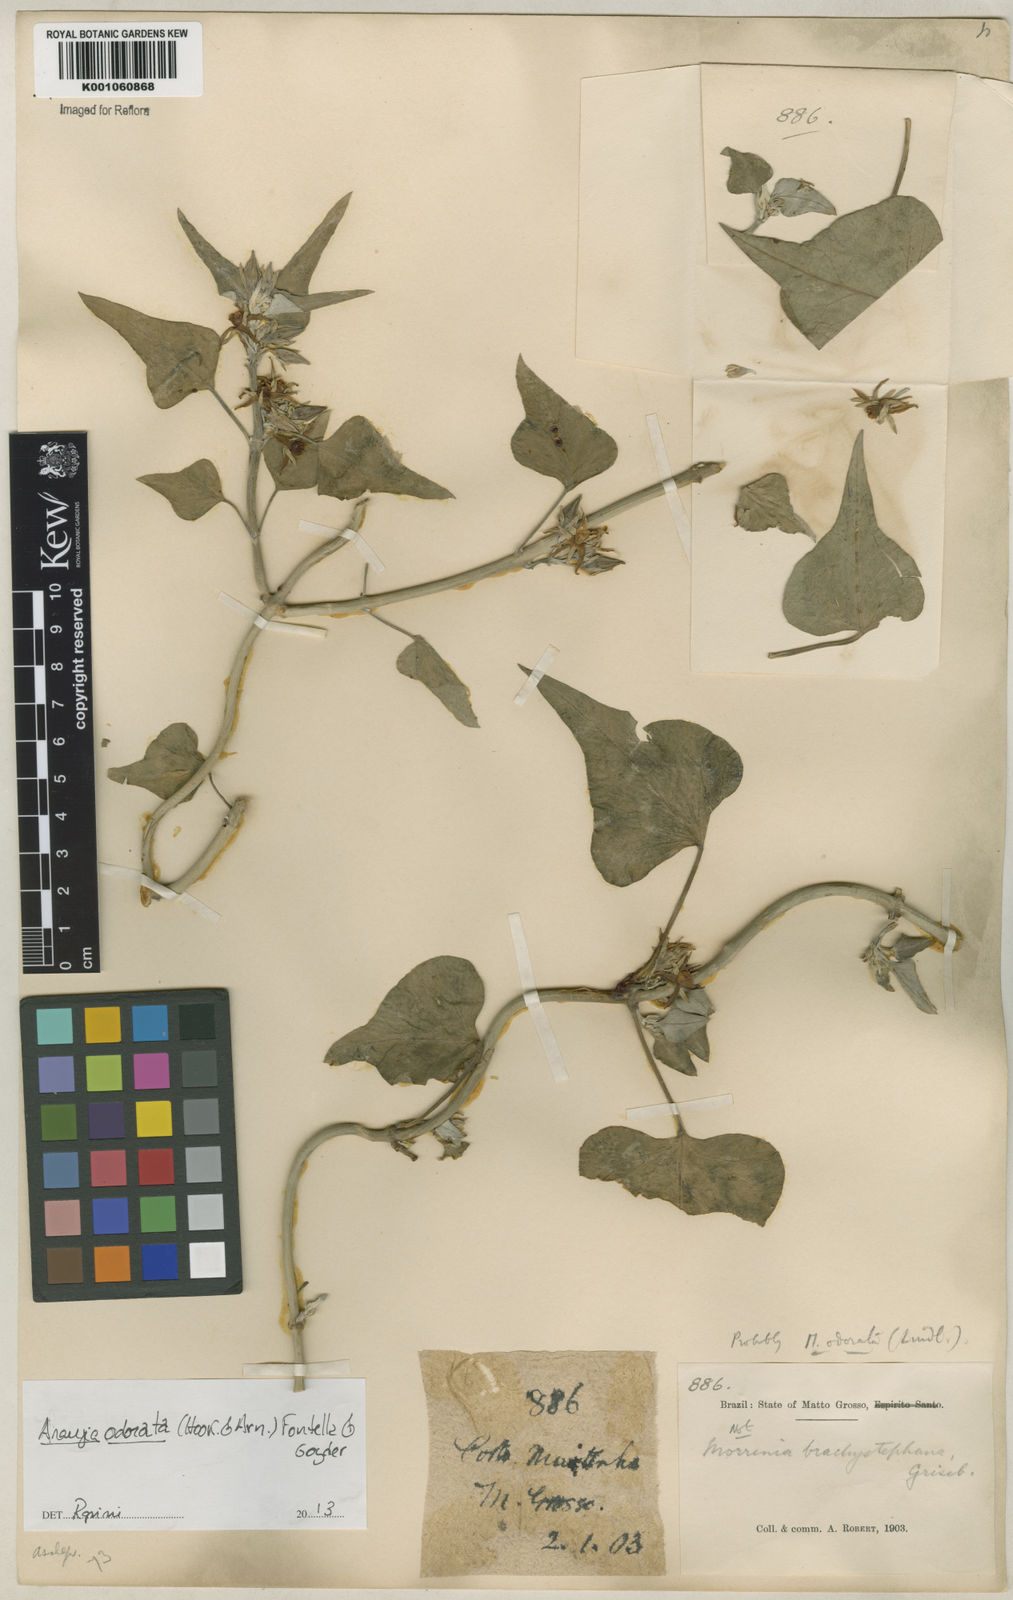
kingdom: Plantae
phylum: Tracheophyta
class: Magnoliopsida
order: Gentianales
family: Apocynaceae
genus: Araujia
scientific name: Araujia odorata
